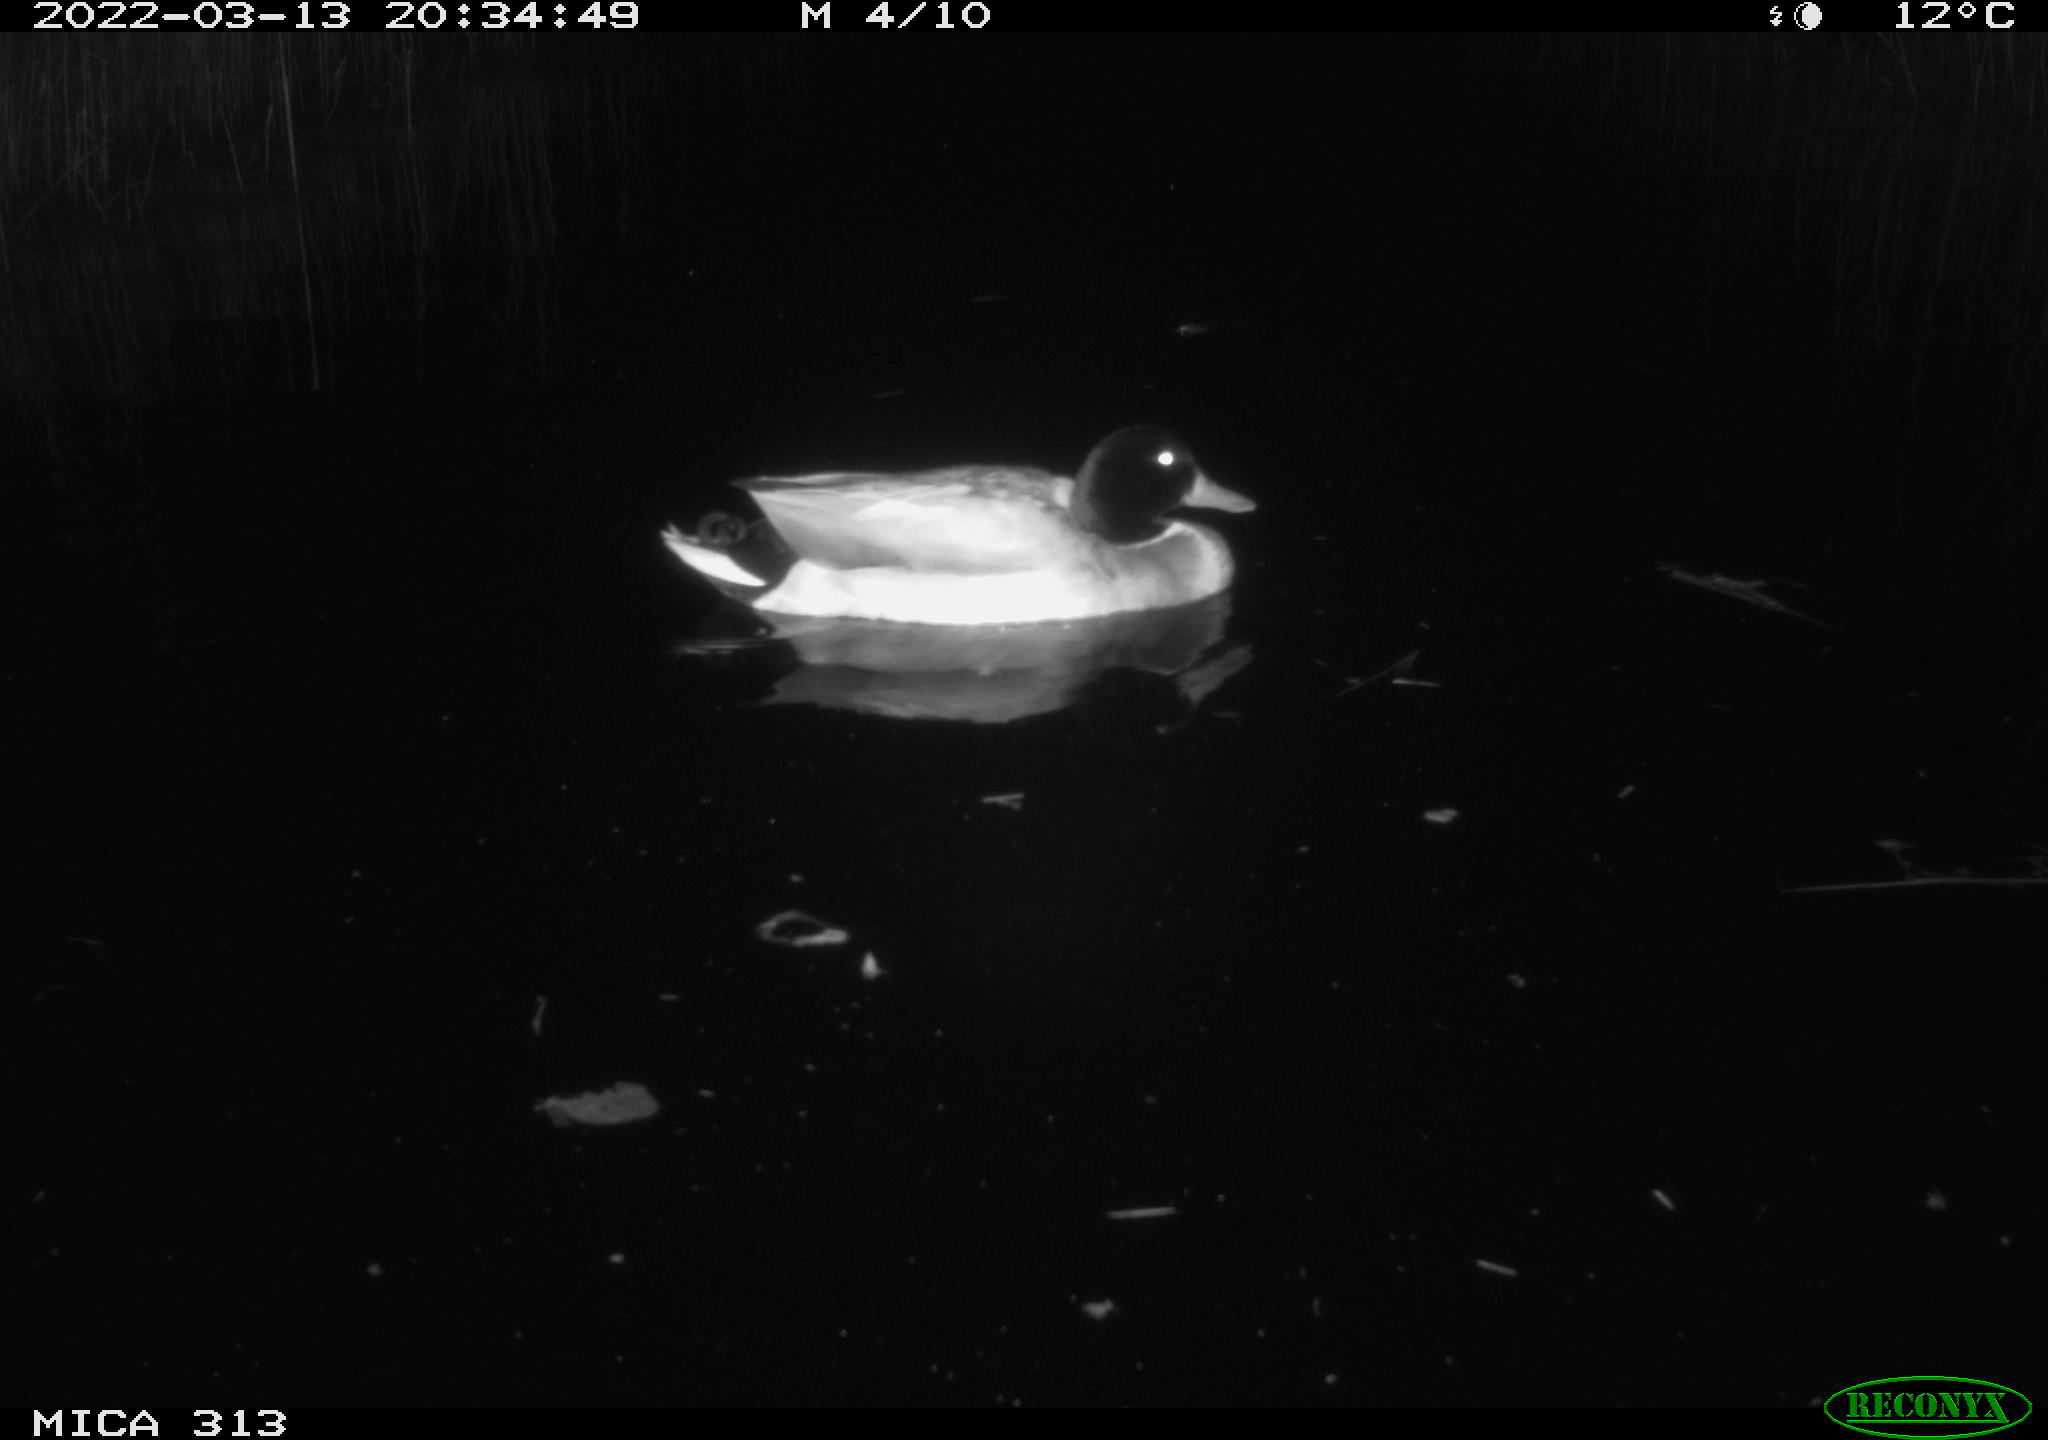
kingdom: Animalia
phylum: Chordata
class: Aves
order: Anseriformes
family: Anatidae
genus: Anas
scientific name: Anas platyrhynchos
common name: Mallard
